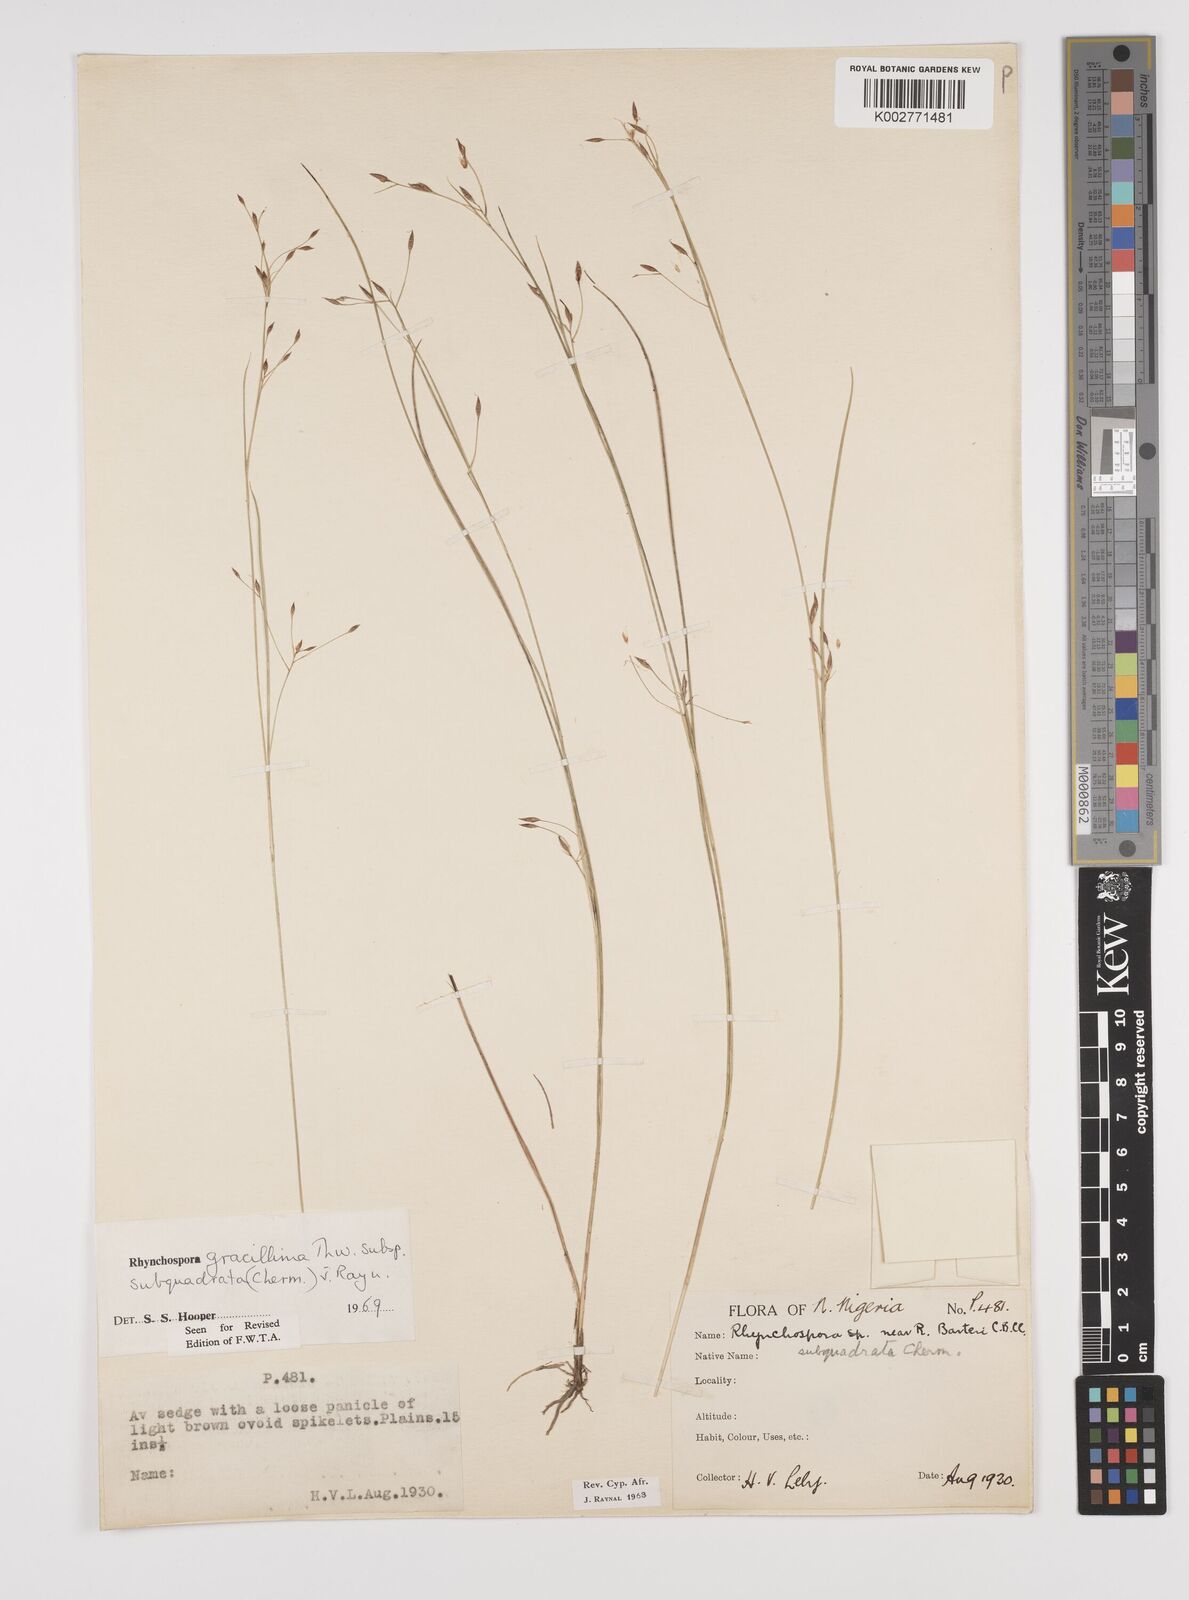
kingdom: Plantae
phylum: Tracheophyta
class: Liliopsida
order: Poales
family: Cyperaceae
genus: Rhynchospora
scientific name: Rhynchospora gracillima
